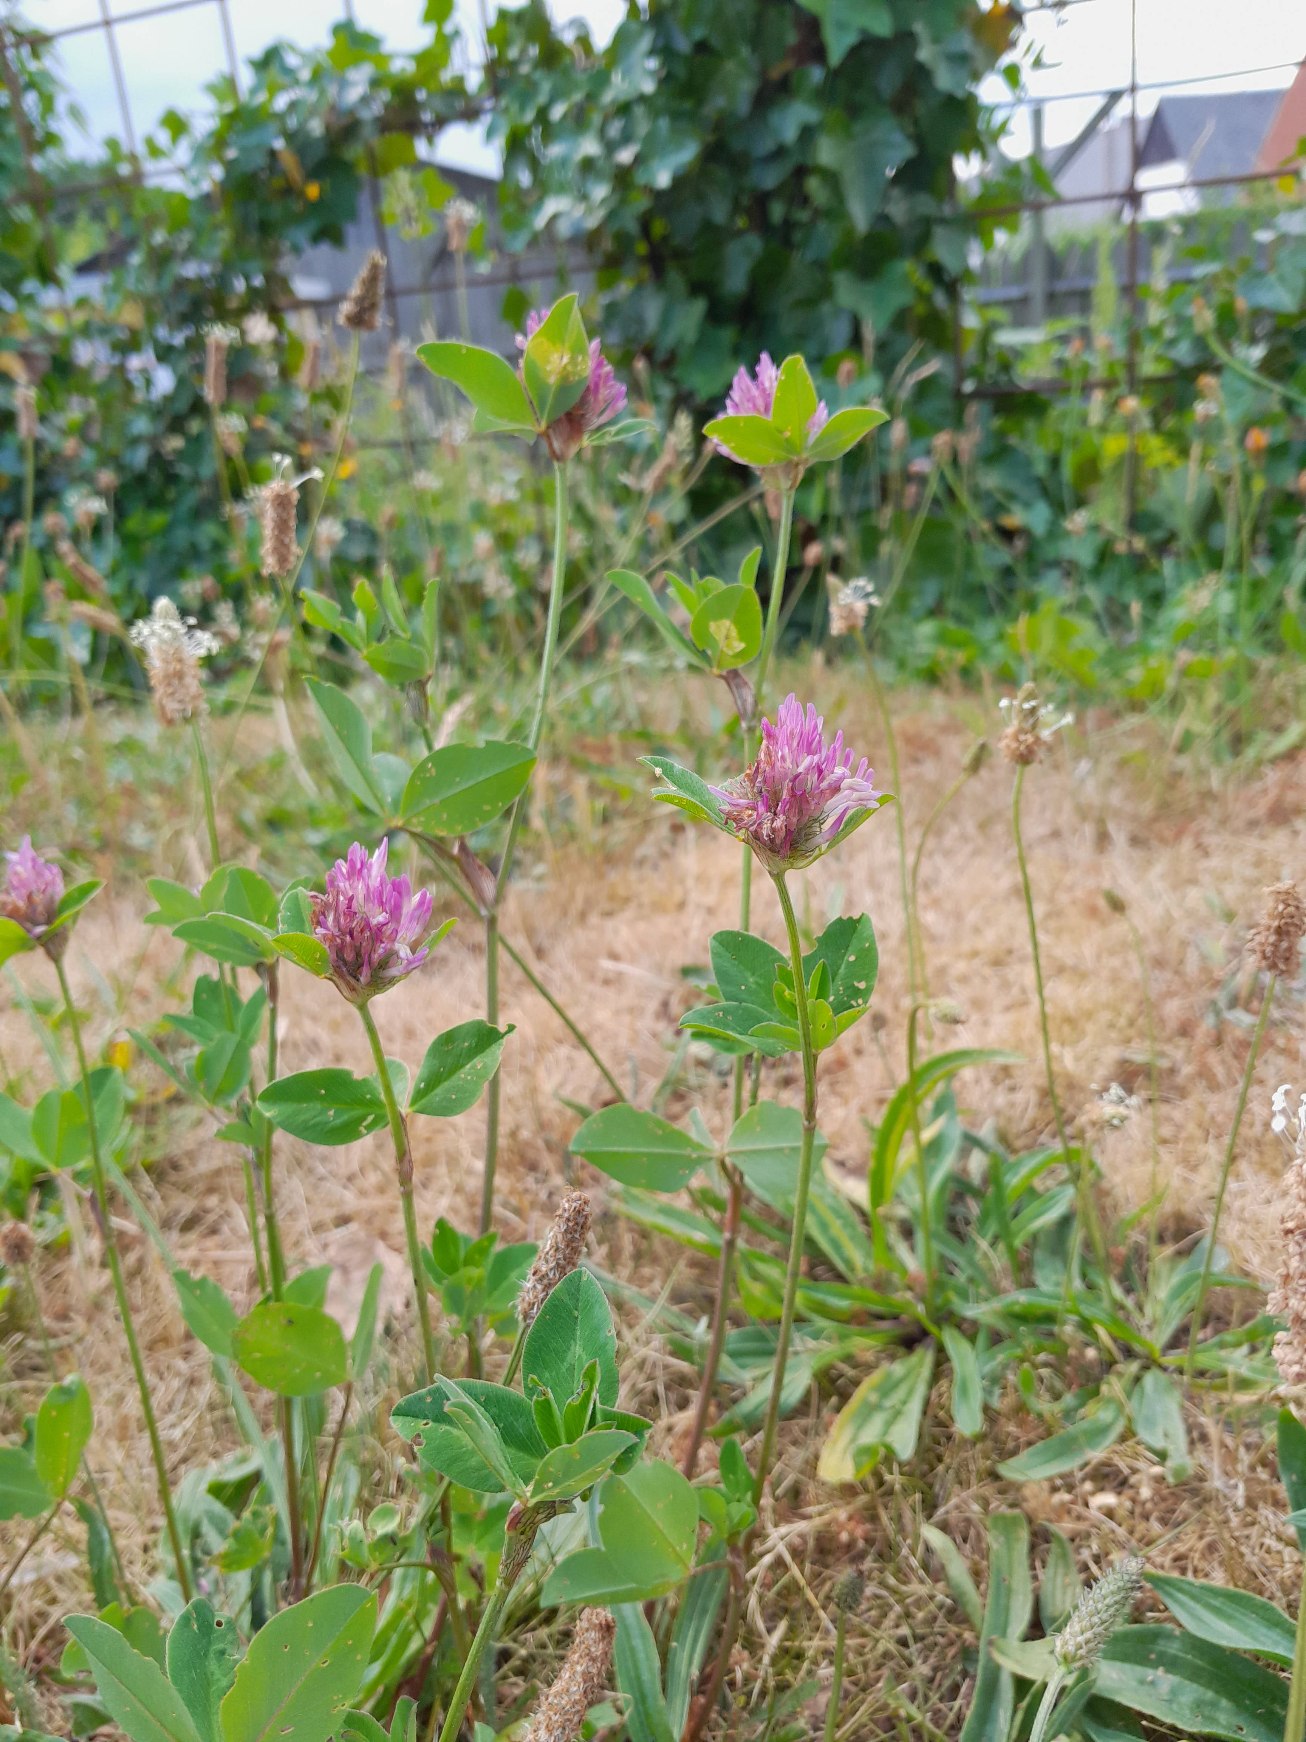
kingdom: Plantae
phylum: Tracheophyta
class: Magnoliopsida
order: Fabales
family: Fabaceae
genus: Trifolium
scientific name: Trifolium pratense
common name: Rød-kløver
